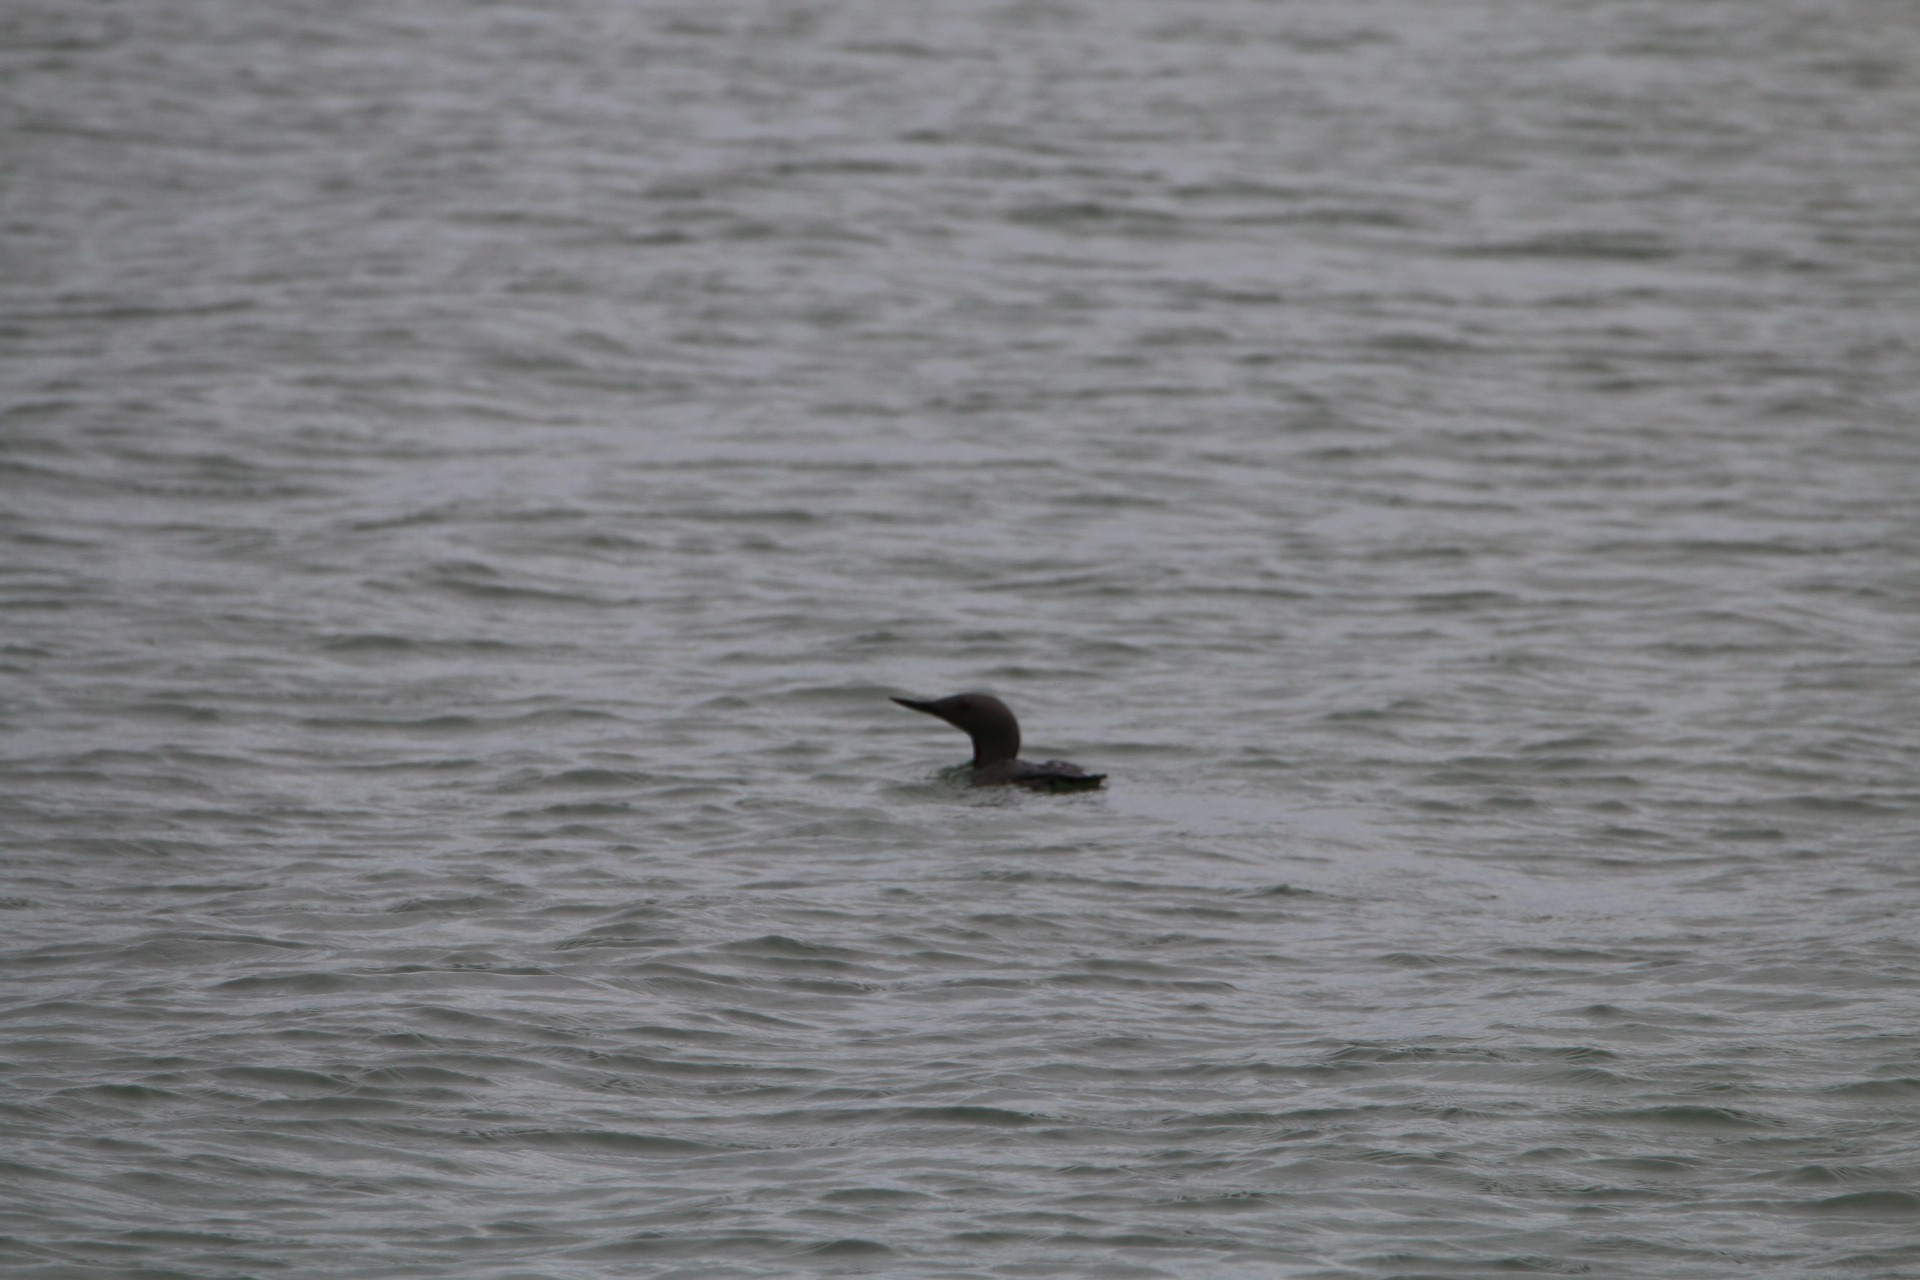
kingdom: Animalia
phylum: Chordata
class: Aves
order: Gaviiformes
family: Gaviidae
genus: Gavia
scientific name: Gavia stellata
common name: Rødstrubet lom
